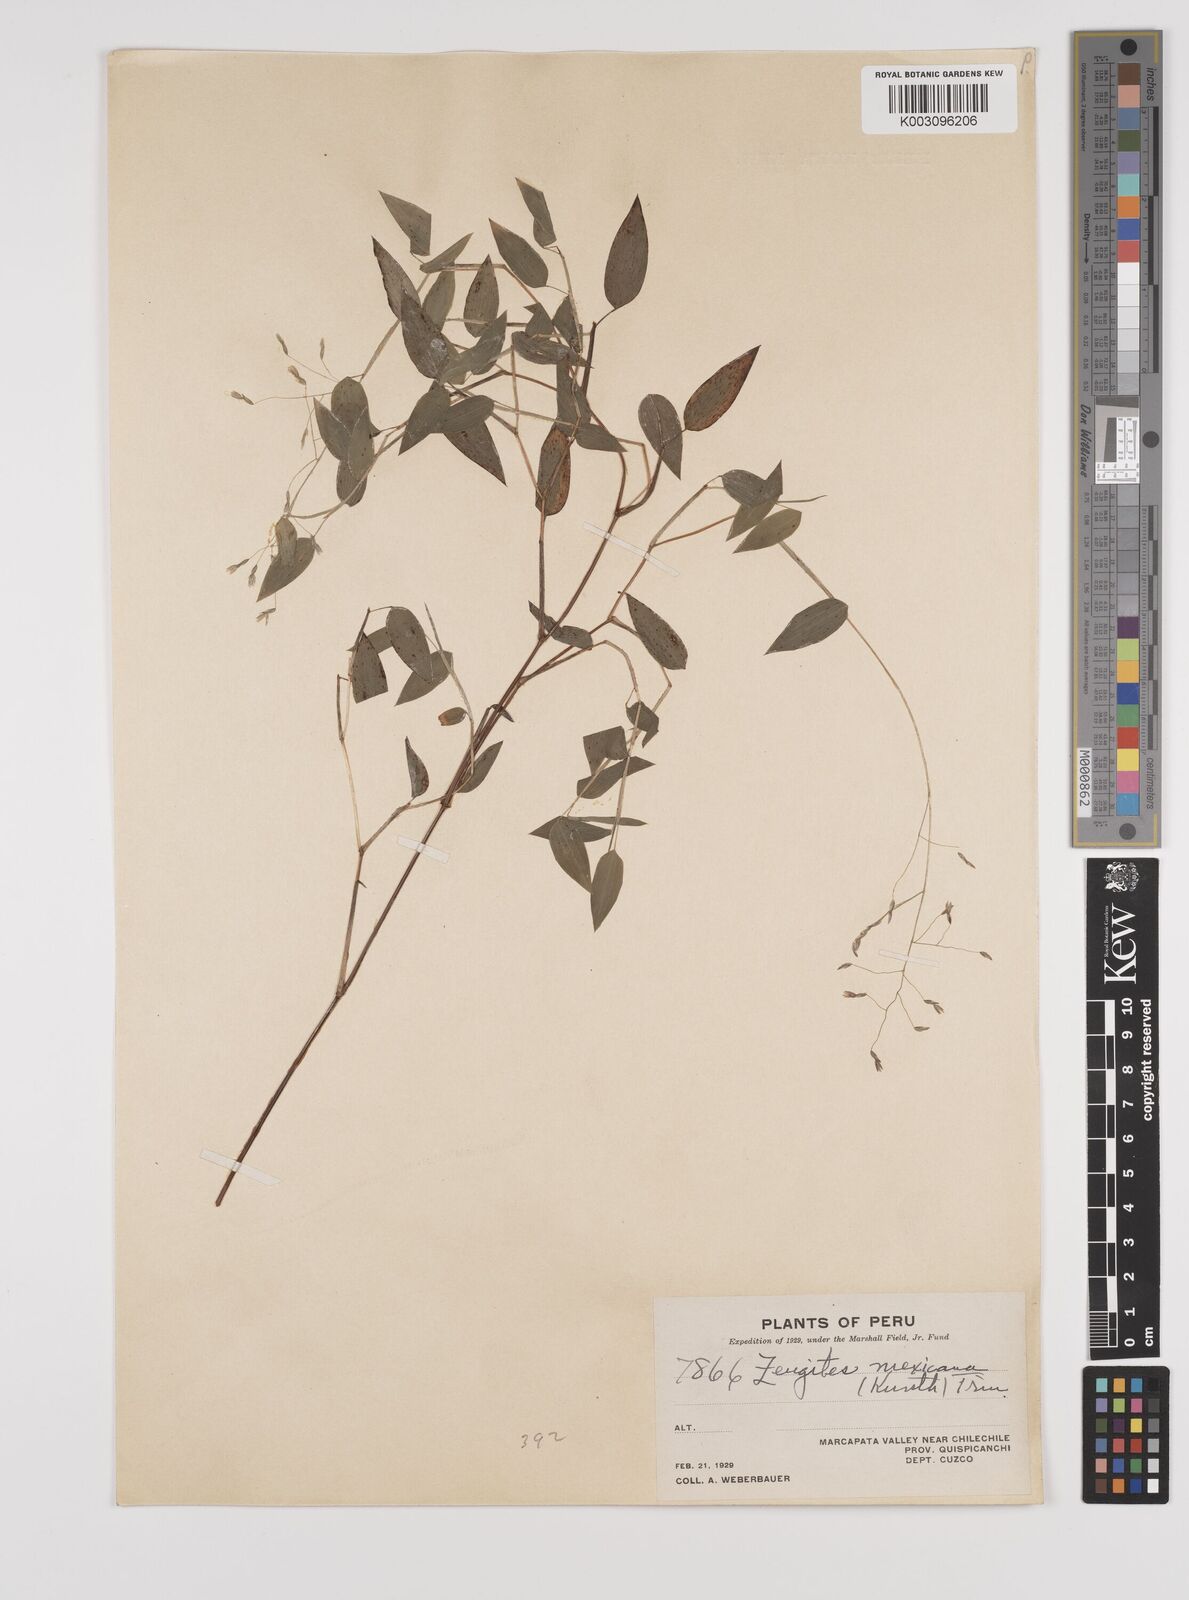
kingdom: Plantae
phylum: Tracheophyta
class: Liliopsida
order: Poales
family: Poaceae
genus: Zeugites
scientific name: Zeugites americanus
